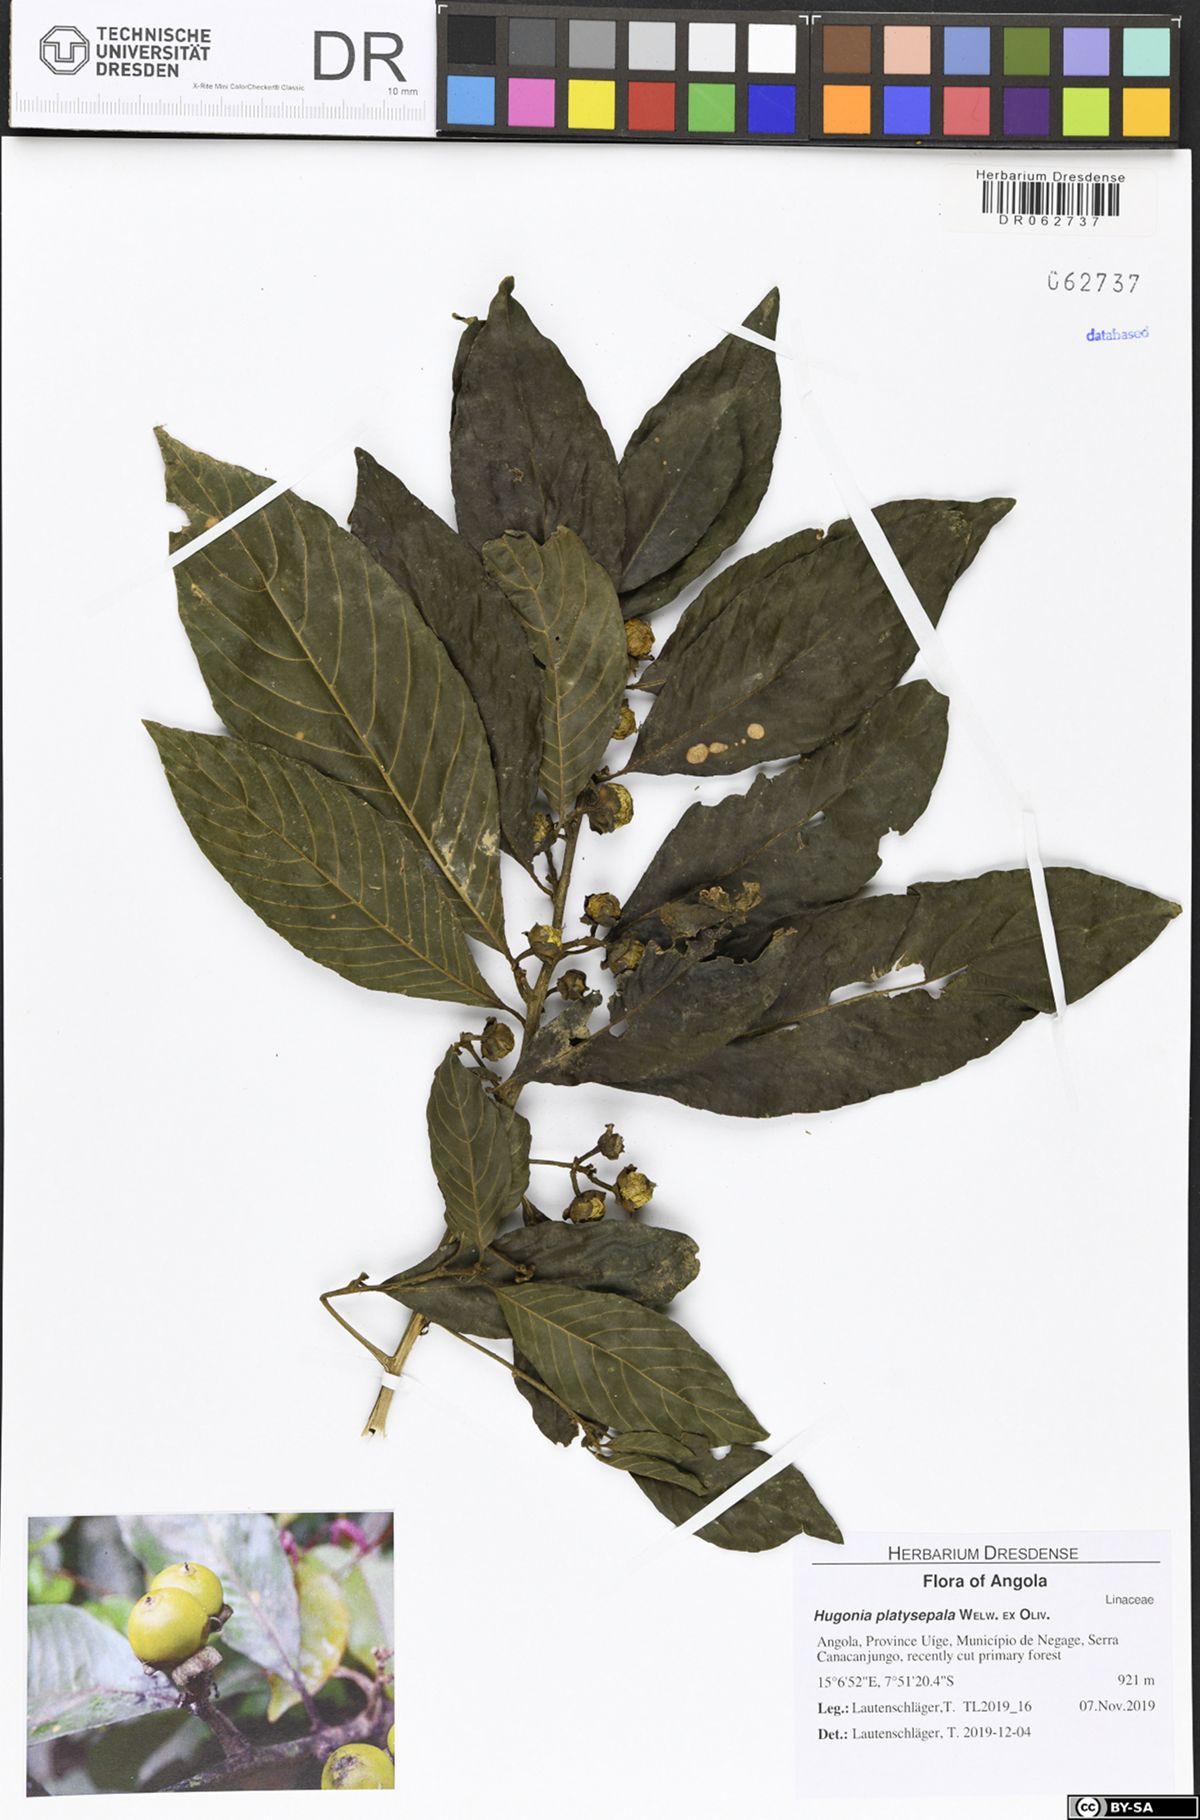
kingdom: Plantae
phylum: Tracheophyta
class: Magnoliopsida
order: Malpighiales
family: Linaceae
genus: Hugonia
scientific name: Hugonia platysepala
